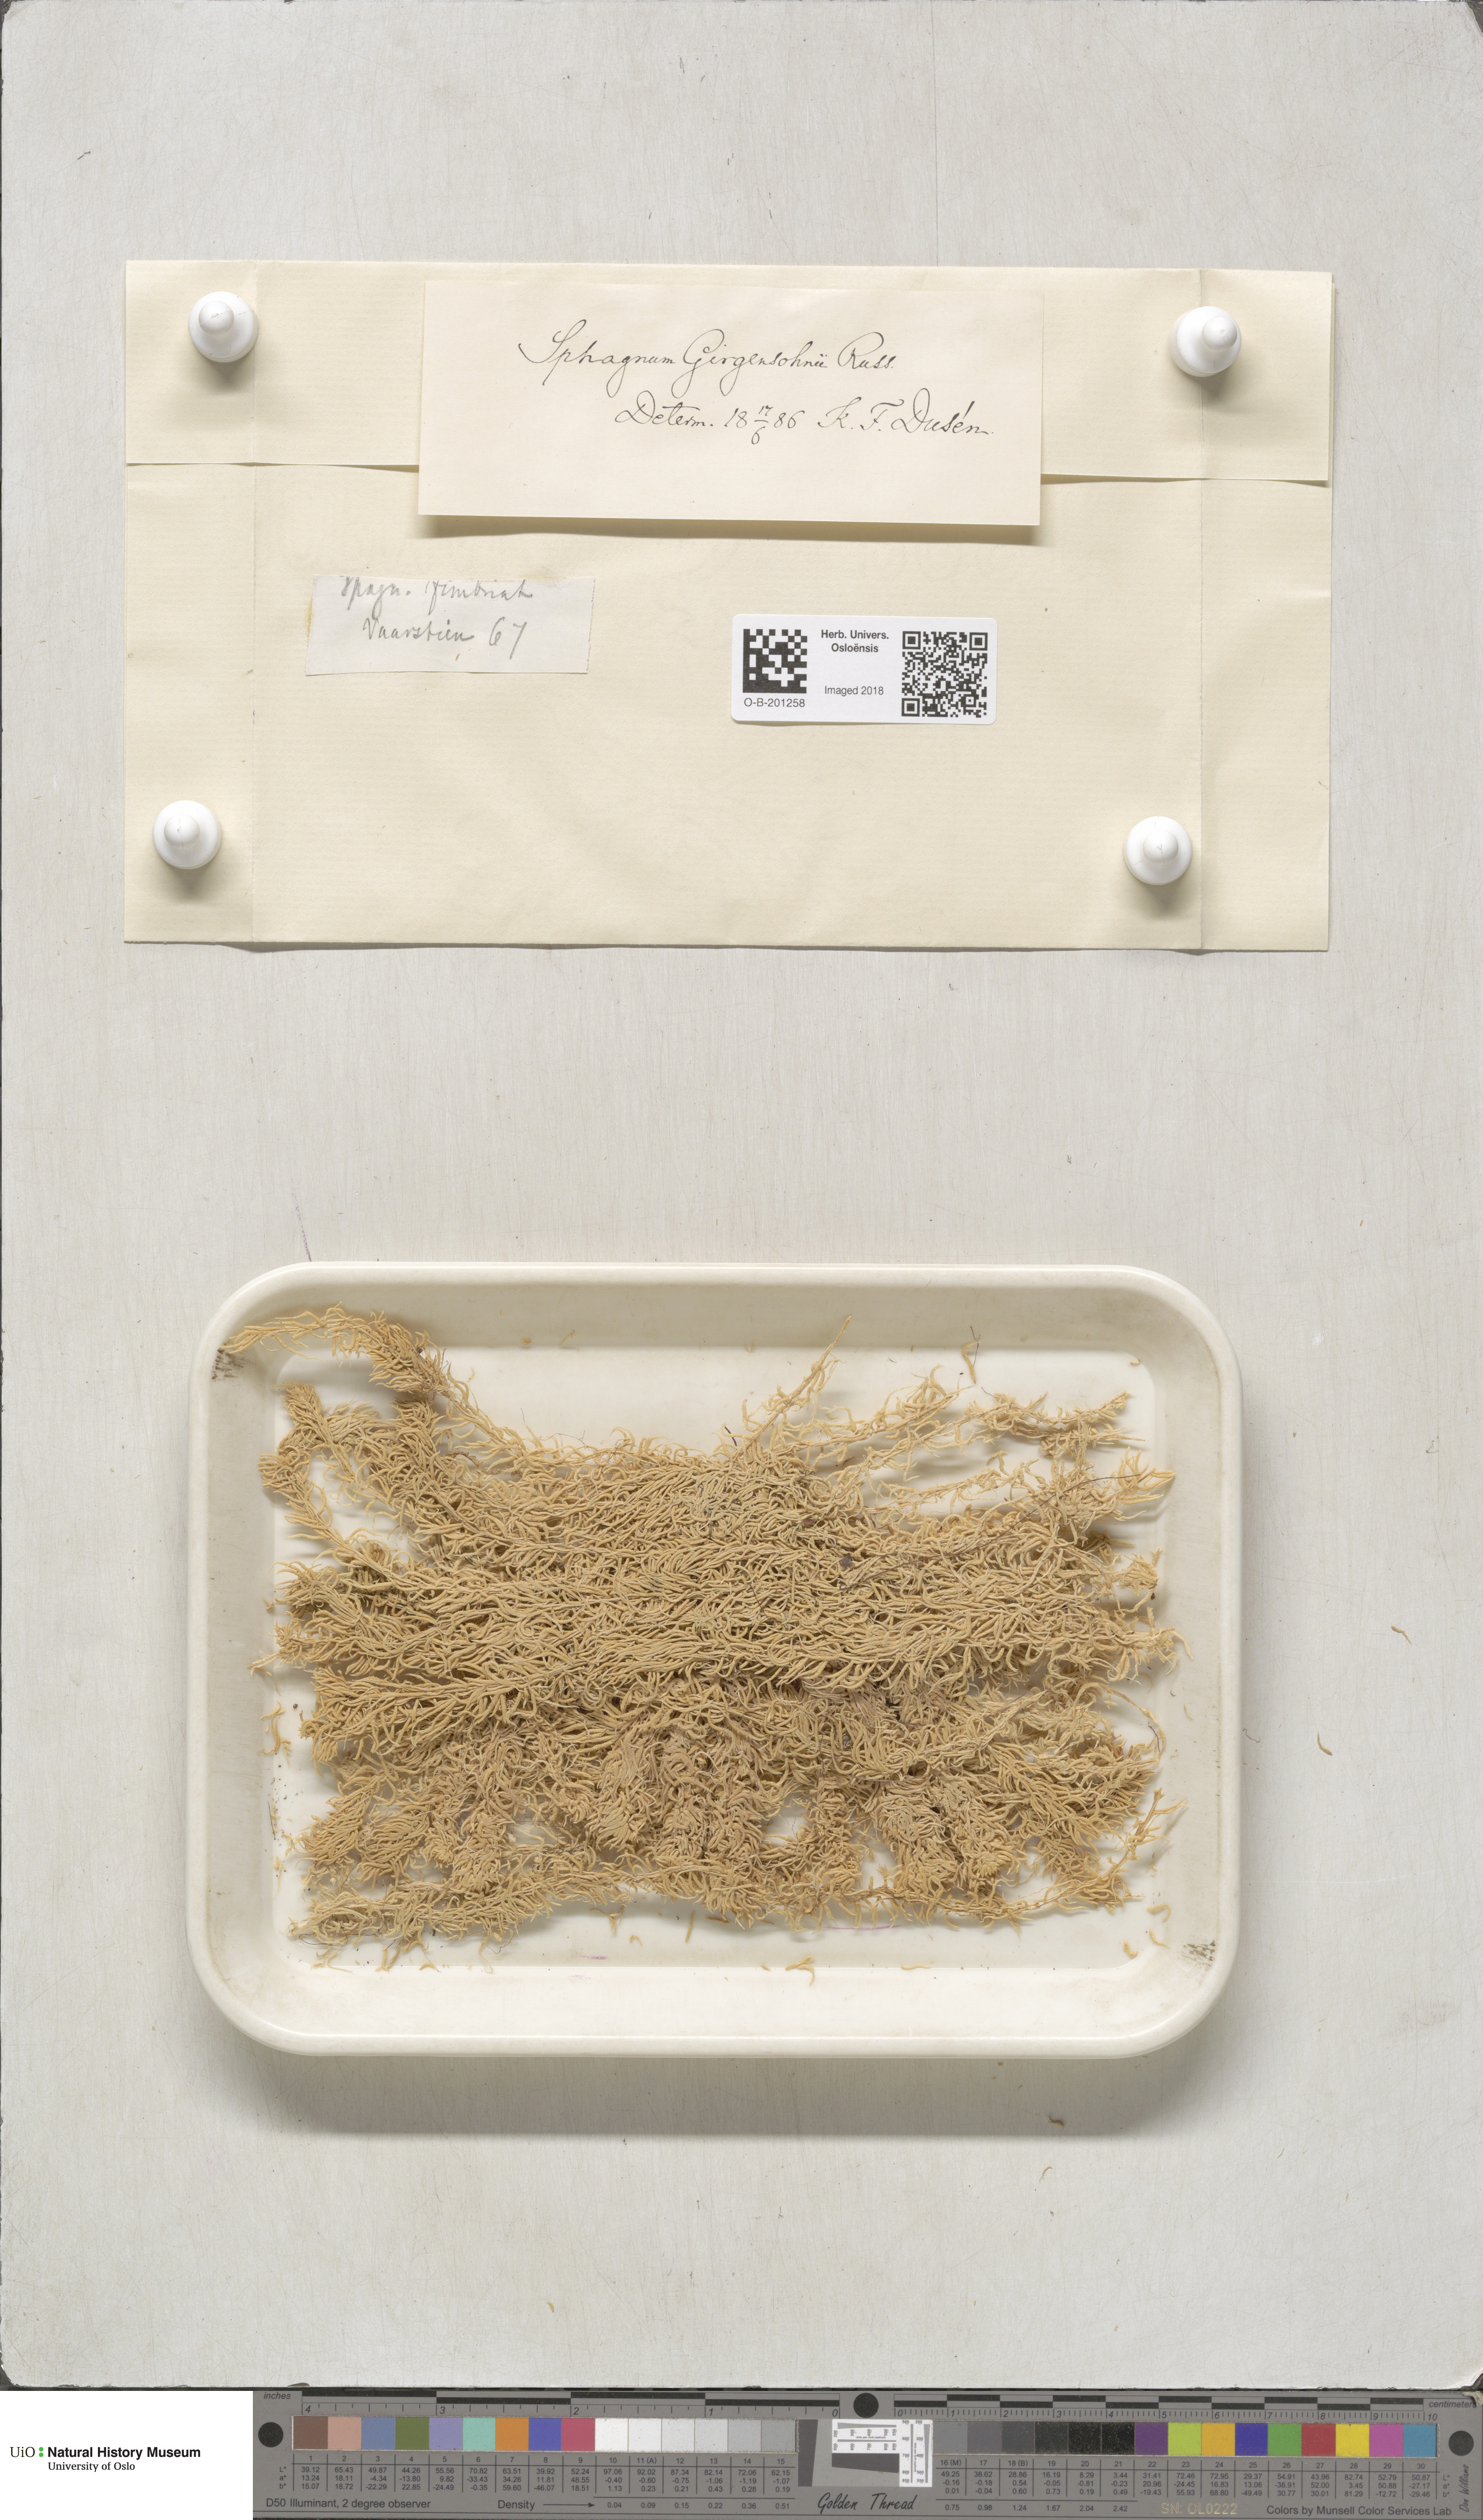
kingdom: Plantae
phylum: Bryophyta
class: Sphagnopsida
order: Sphagnales
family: Sphagnaceae
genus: Sphagnum
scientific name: Sphagnum girgensohnii
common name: Girgensohn's peat moss
